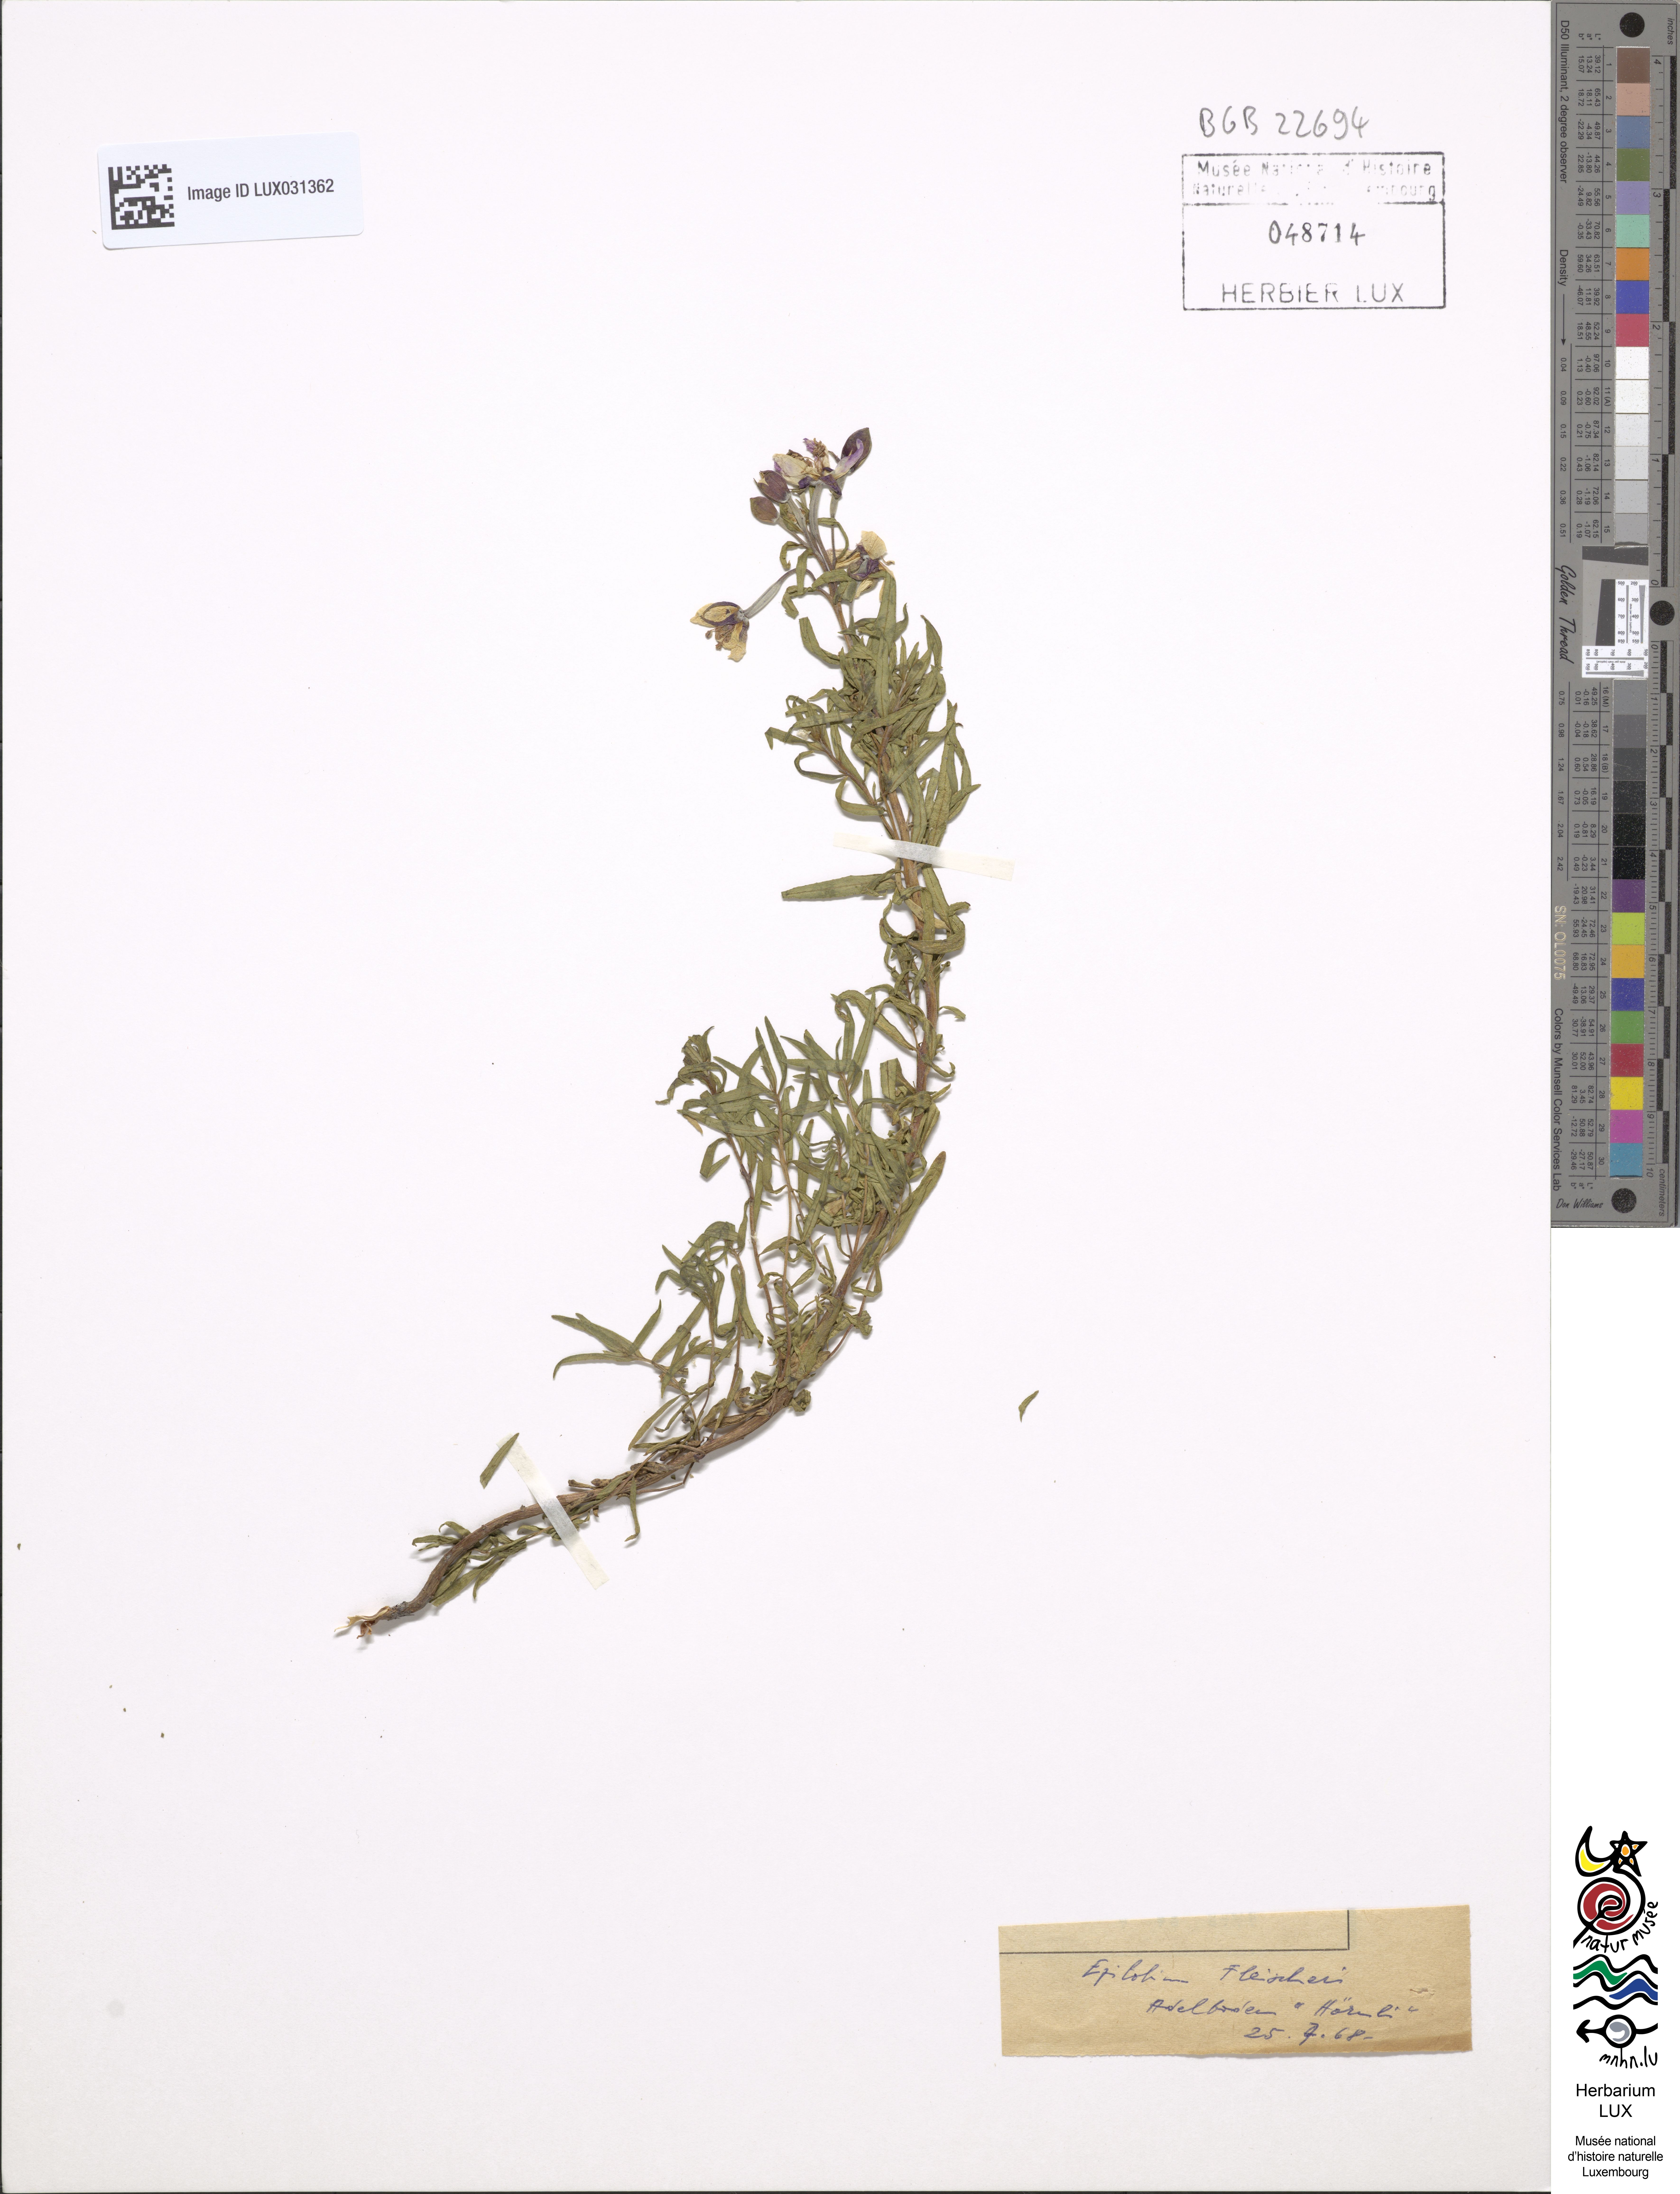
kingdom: Plantae
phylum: Tracheophyta
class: Magnoliopsida
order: Myrtales
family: Onagraceae
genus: Chamaenerion
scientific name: Chamaenerion fleischeri
